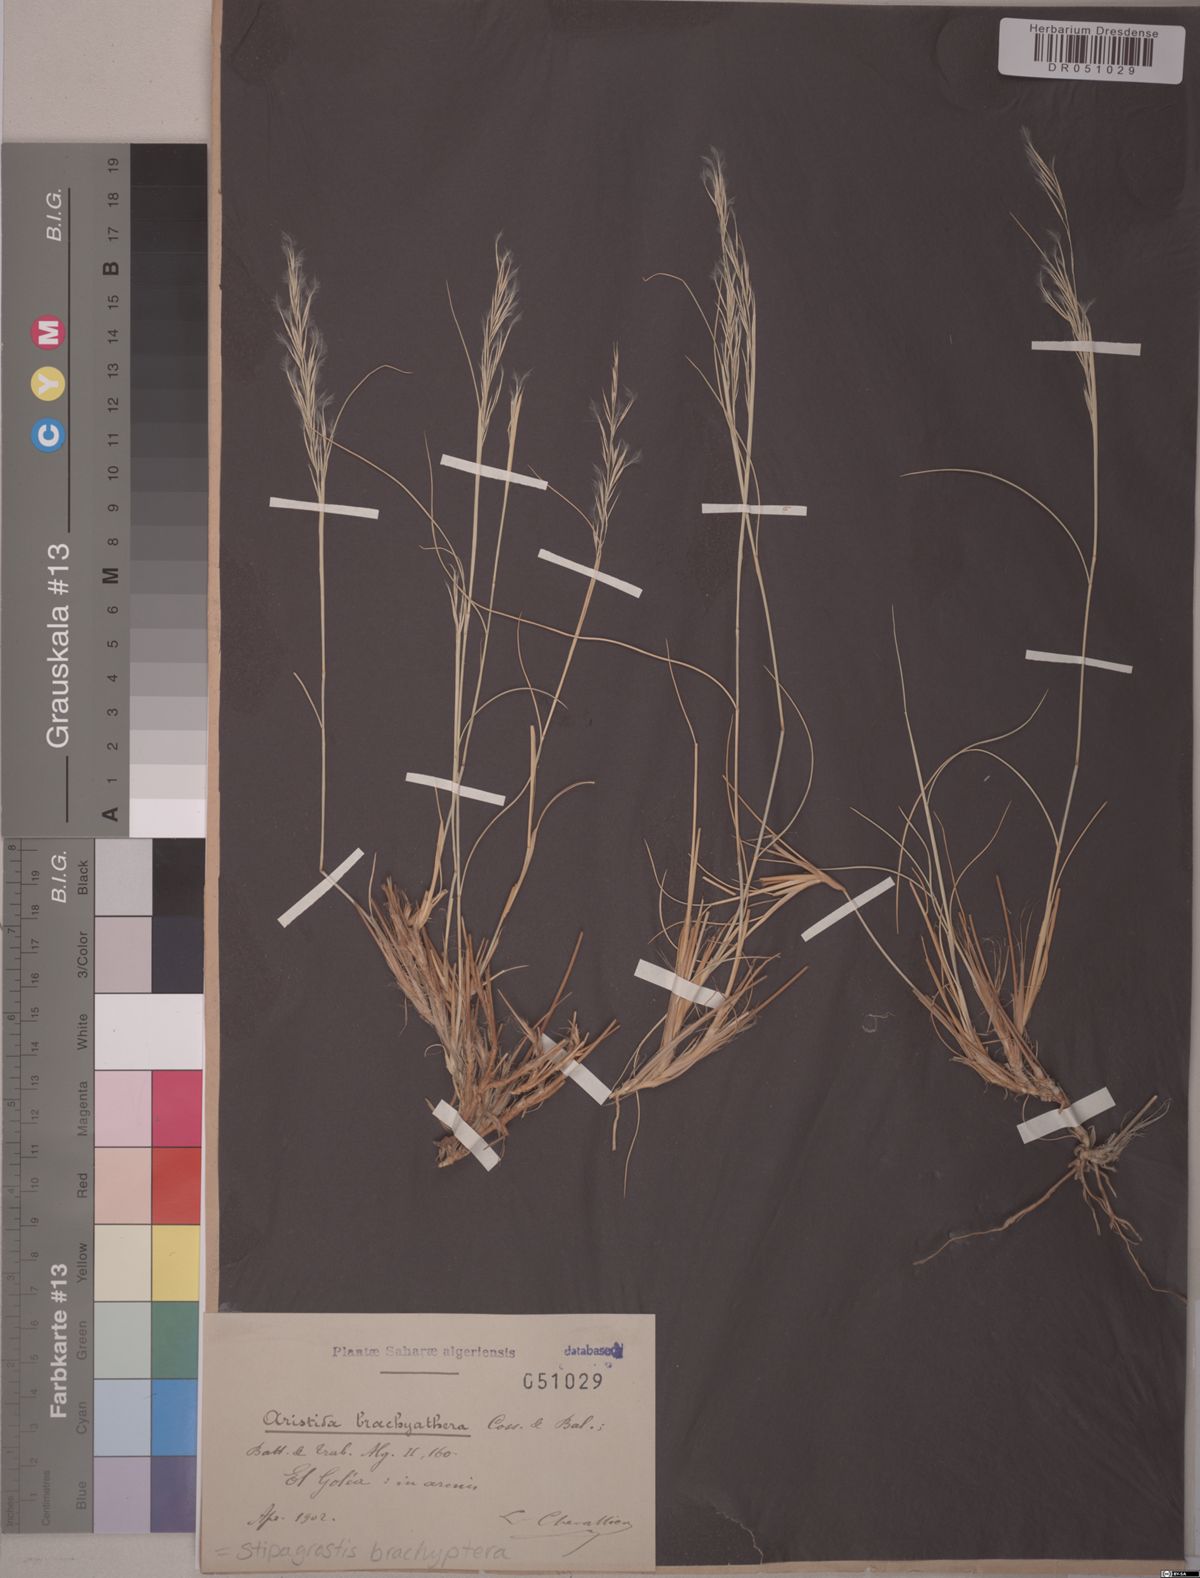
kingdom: Plantae
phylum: Tracheophyta
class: Liliopsida
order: Poales
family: Poaceae
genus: Stipagrostis
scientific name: Stipagrostis brachyathera
